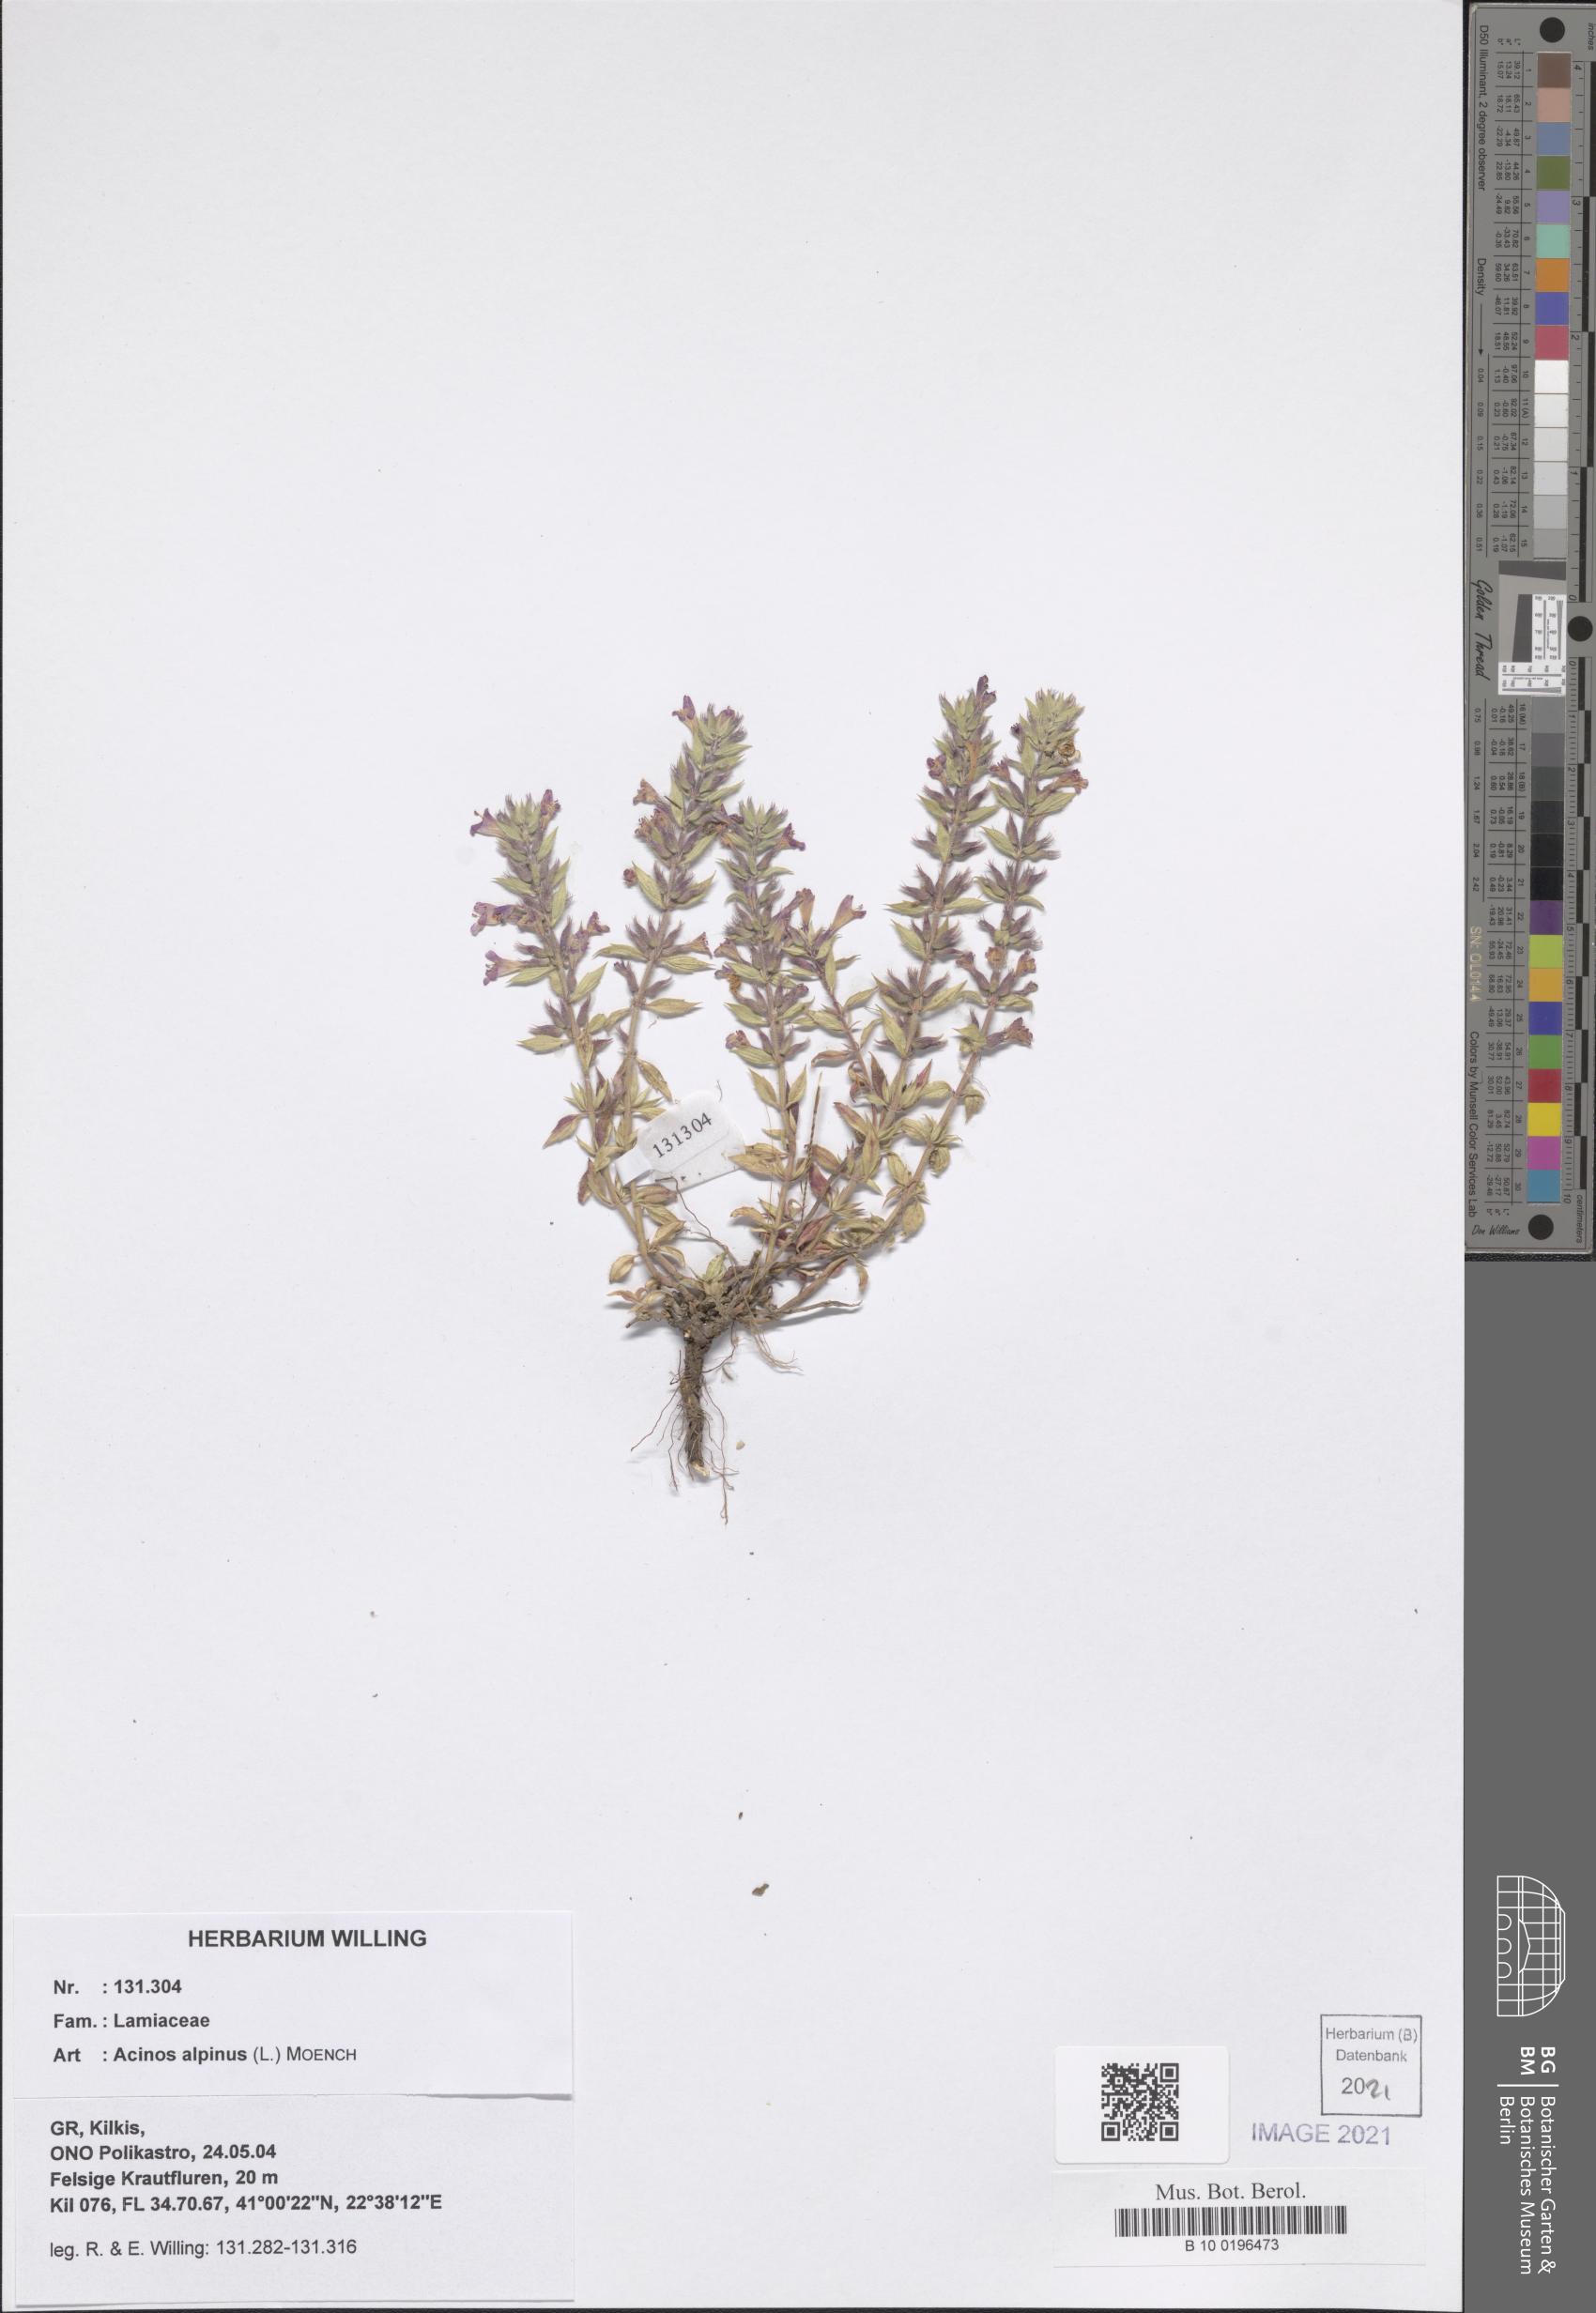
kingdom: Plantae
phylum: Tracheophyta
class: Magnoliopsida
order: Lamiales
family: Lamiaceae
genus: Clinopodium
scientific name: Clinopodium alpinum
